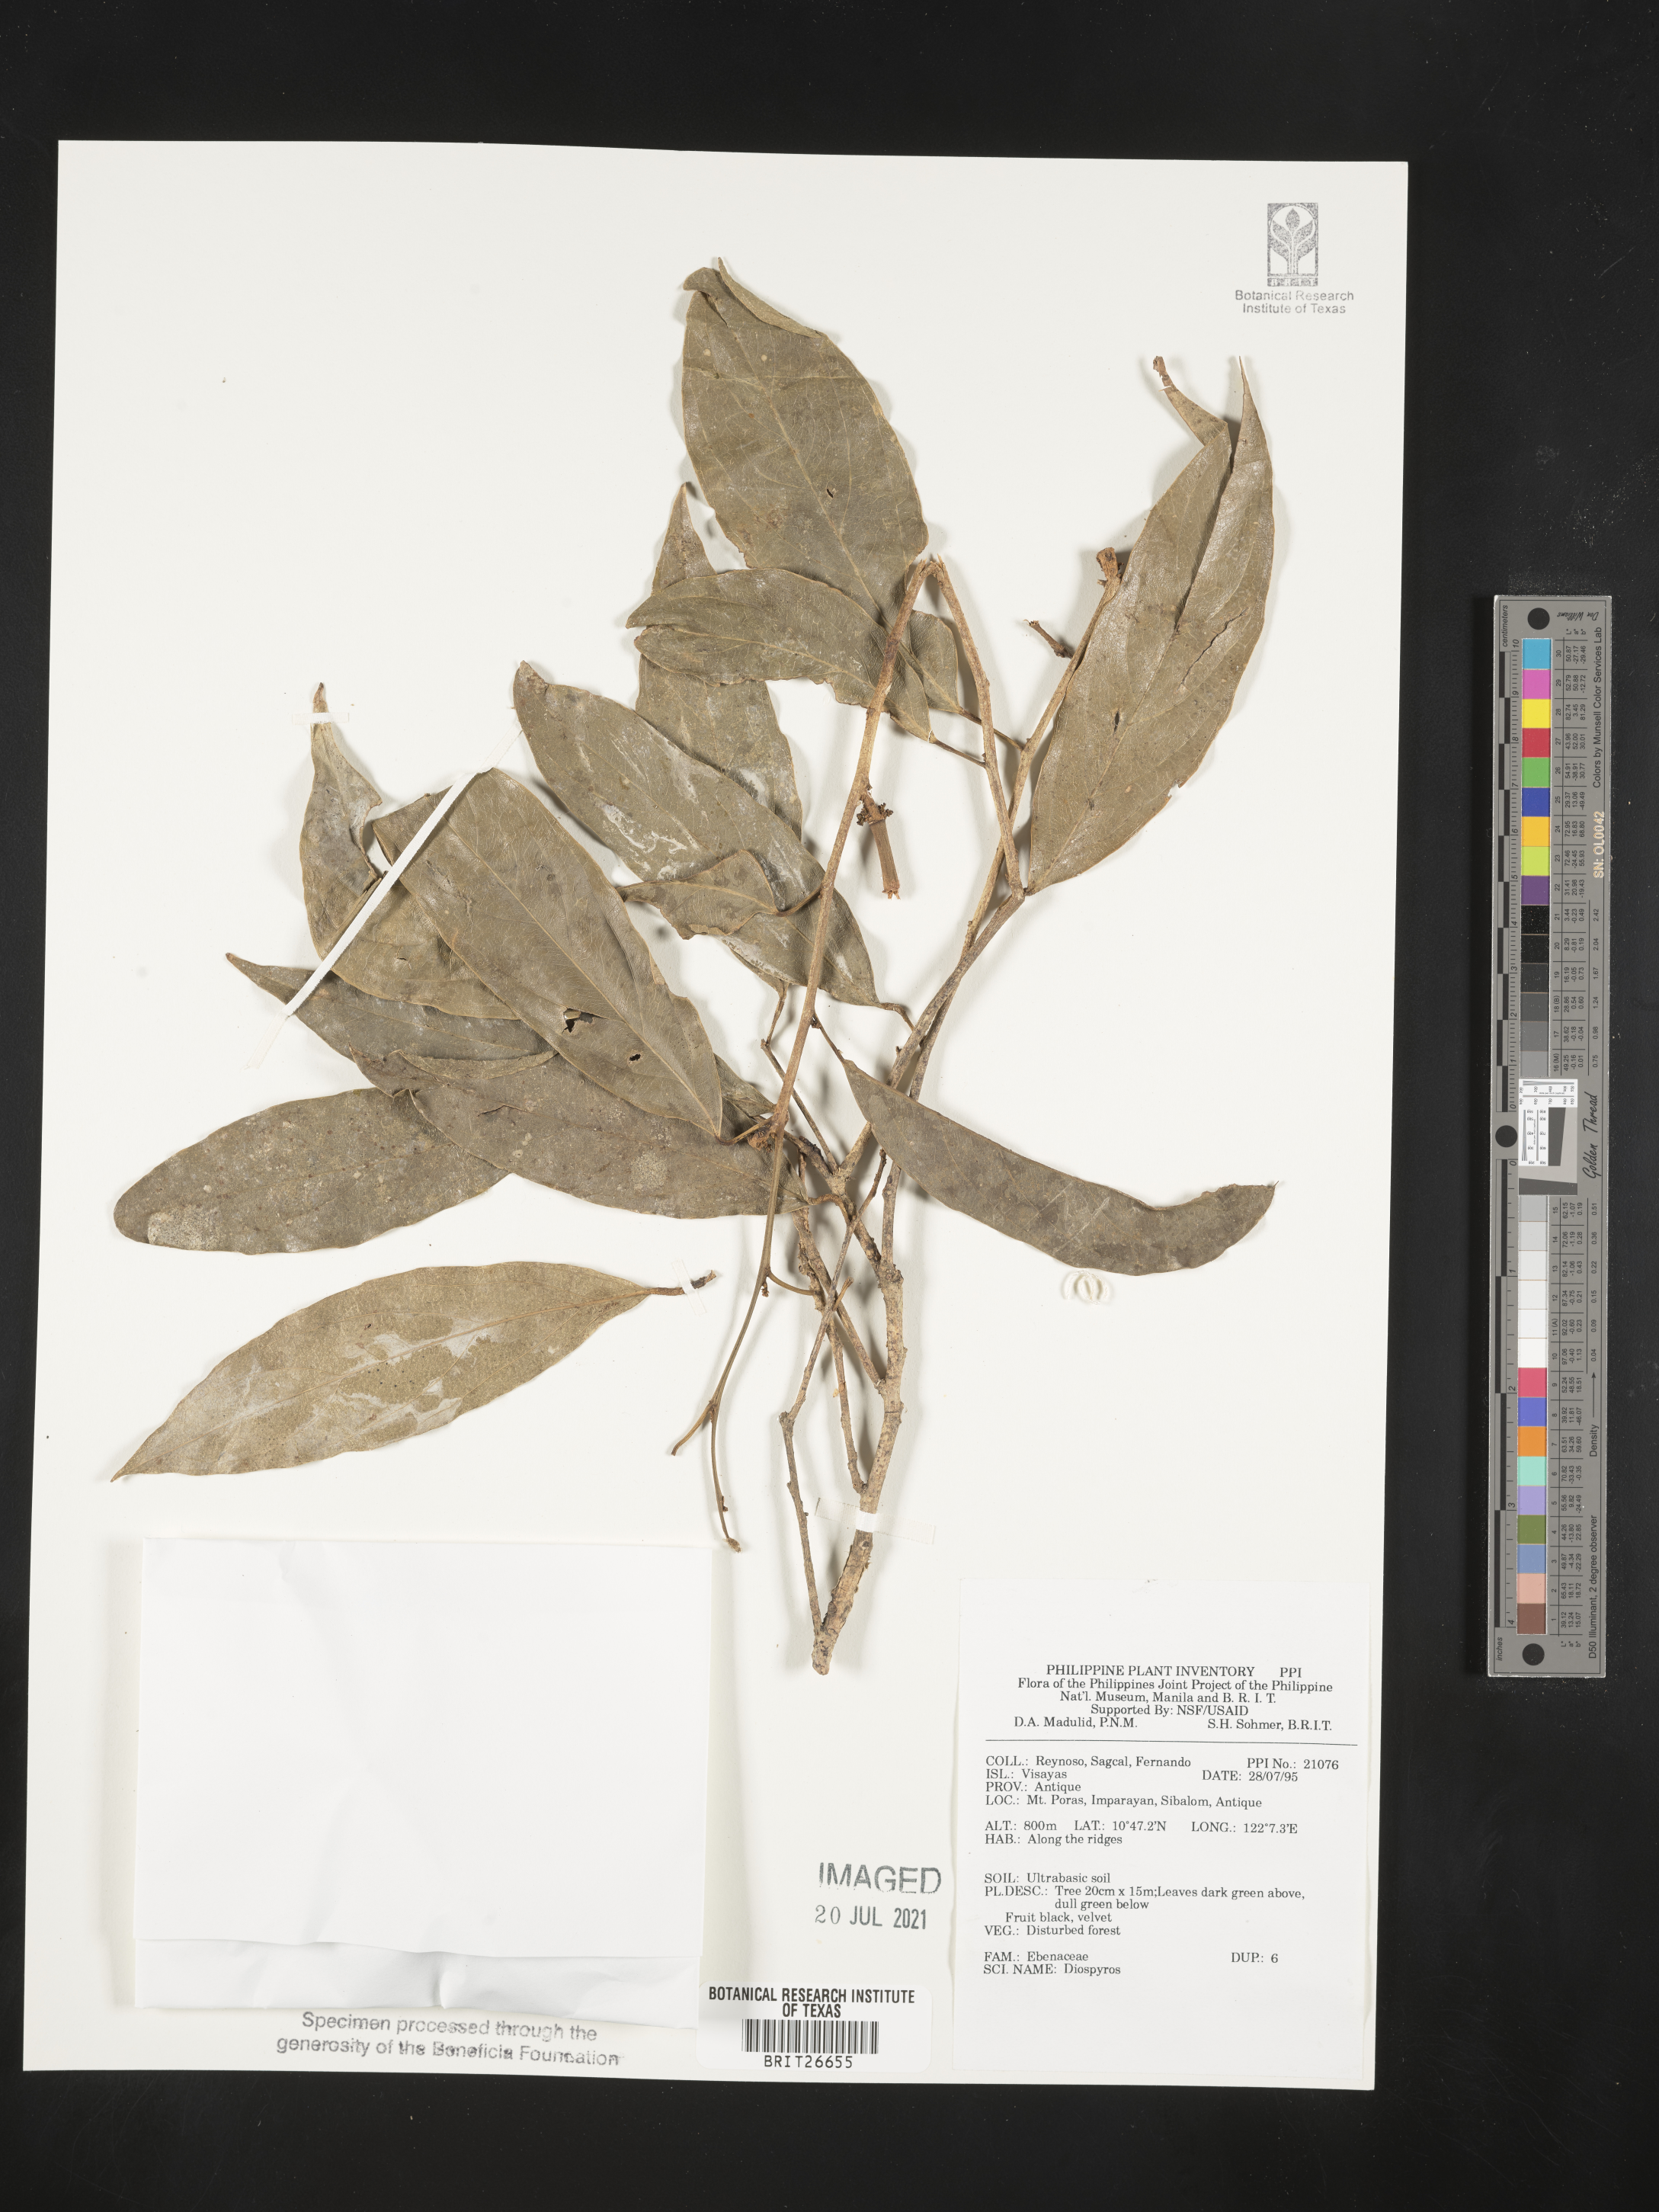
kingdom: Plantae
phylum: Tracheophyta
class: Magnoliopsida
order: Ericales
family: Ebenaceae
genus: Diospyros
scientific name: Diospyros
